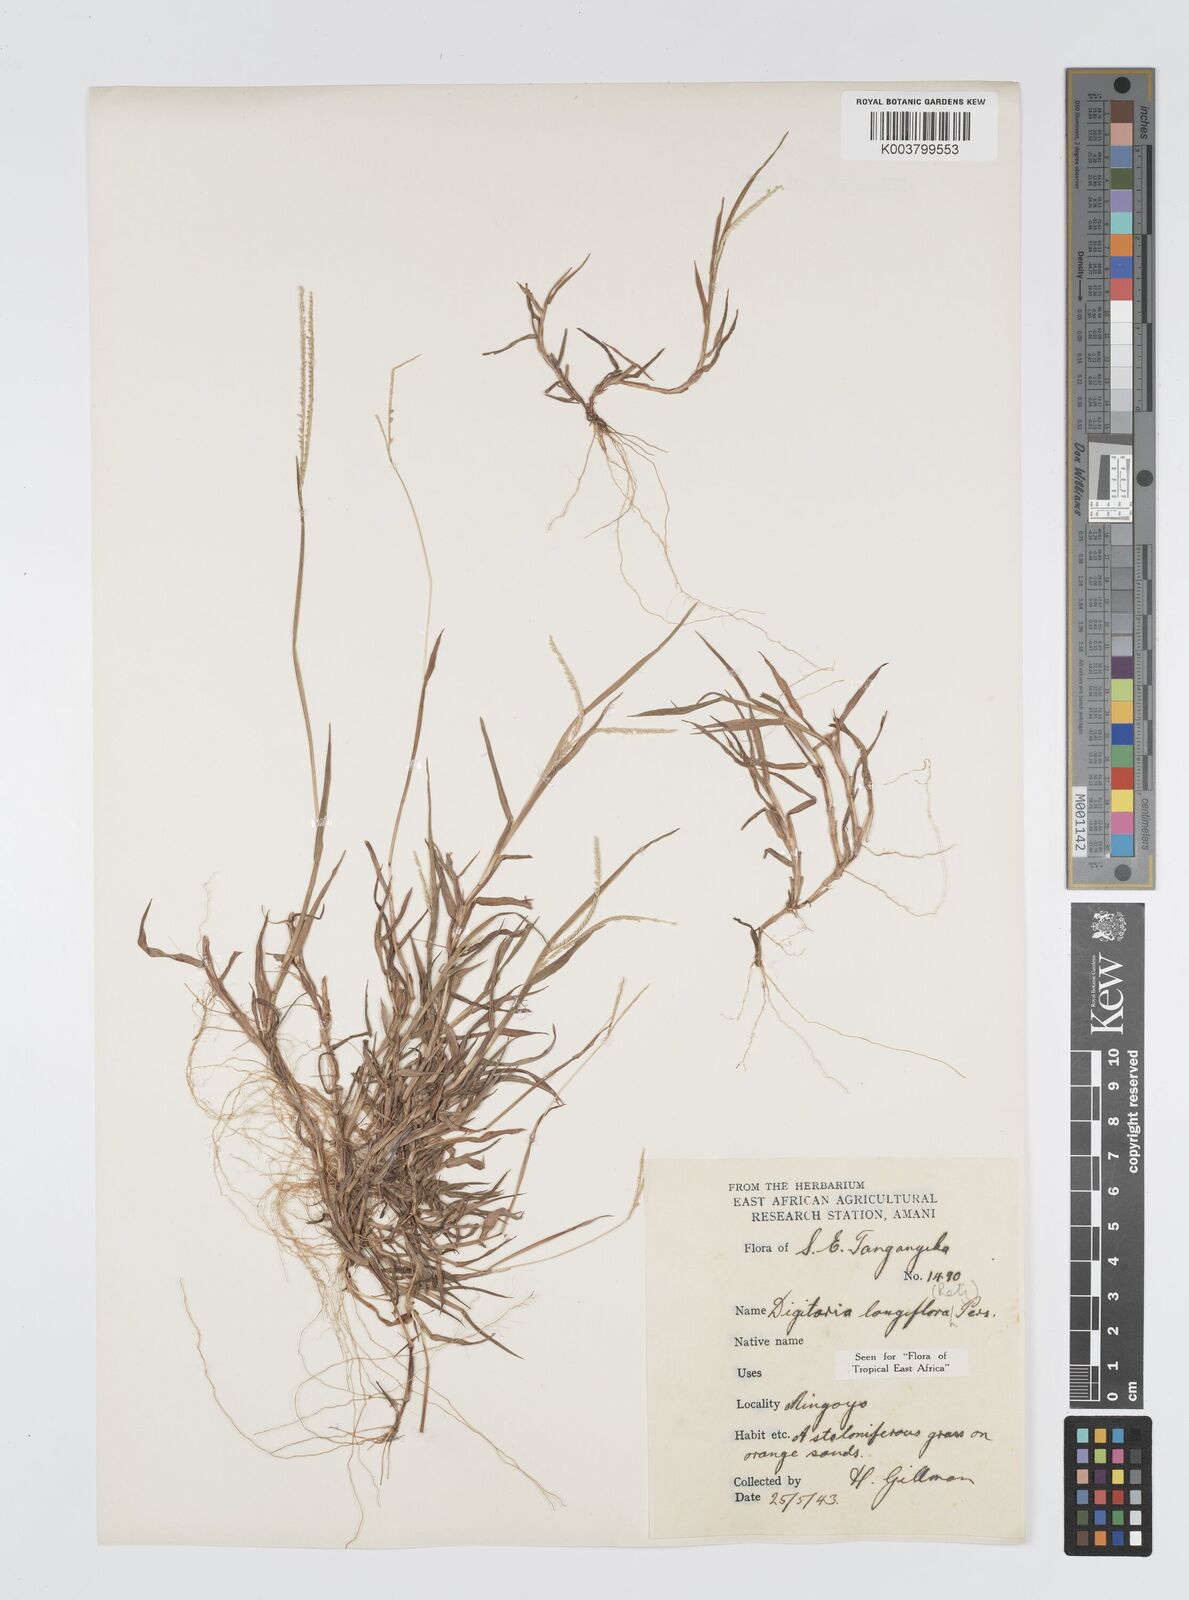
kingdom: Plantae
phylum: Tracheophyta
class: Liliopsida
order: Poales
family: Poaceae
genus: Digitaria
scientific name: Digitaria longiflora
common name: Wire crabgrass
